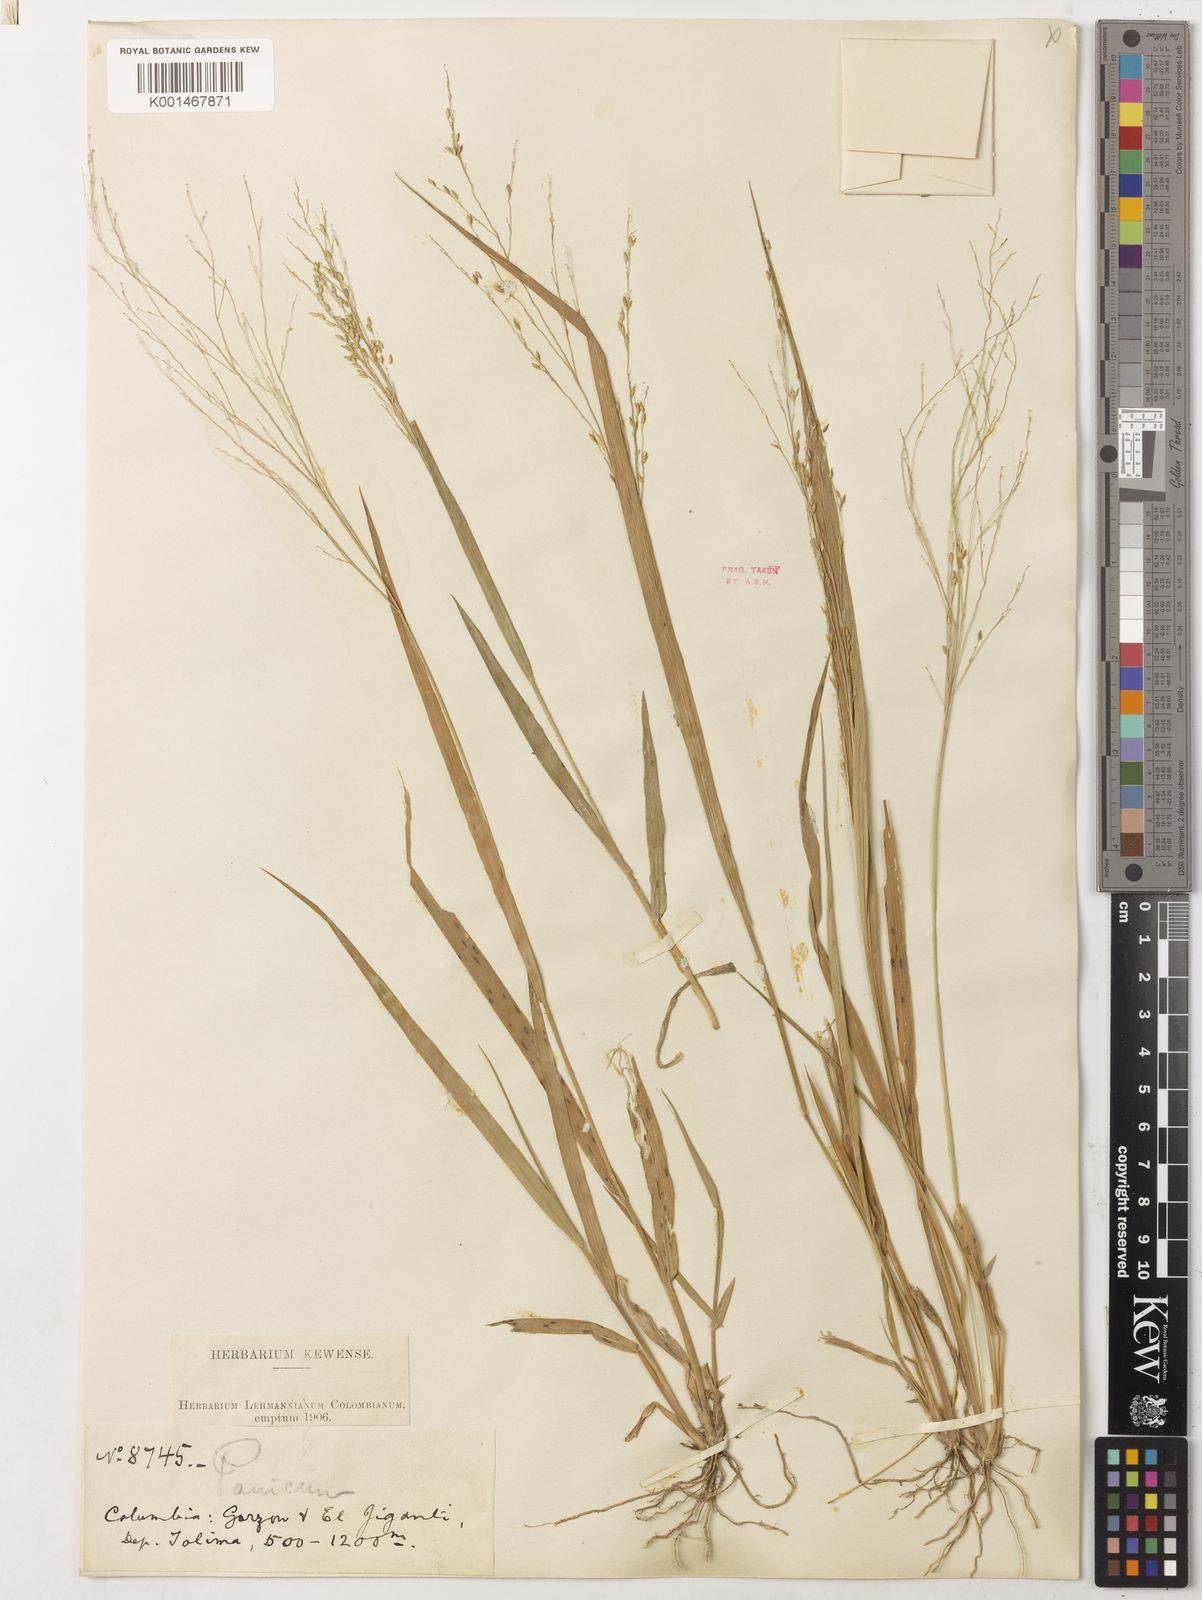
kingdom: Plantae
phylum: Tracheophyta
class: Liliopsida
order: Poales
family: Poaceae
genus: Panicum
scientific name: Panicum hirticaule
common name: Rough-stalk witchgrass
